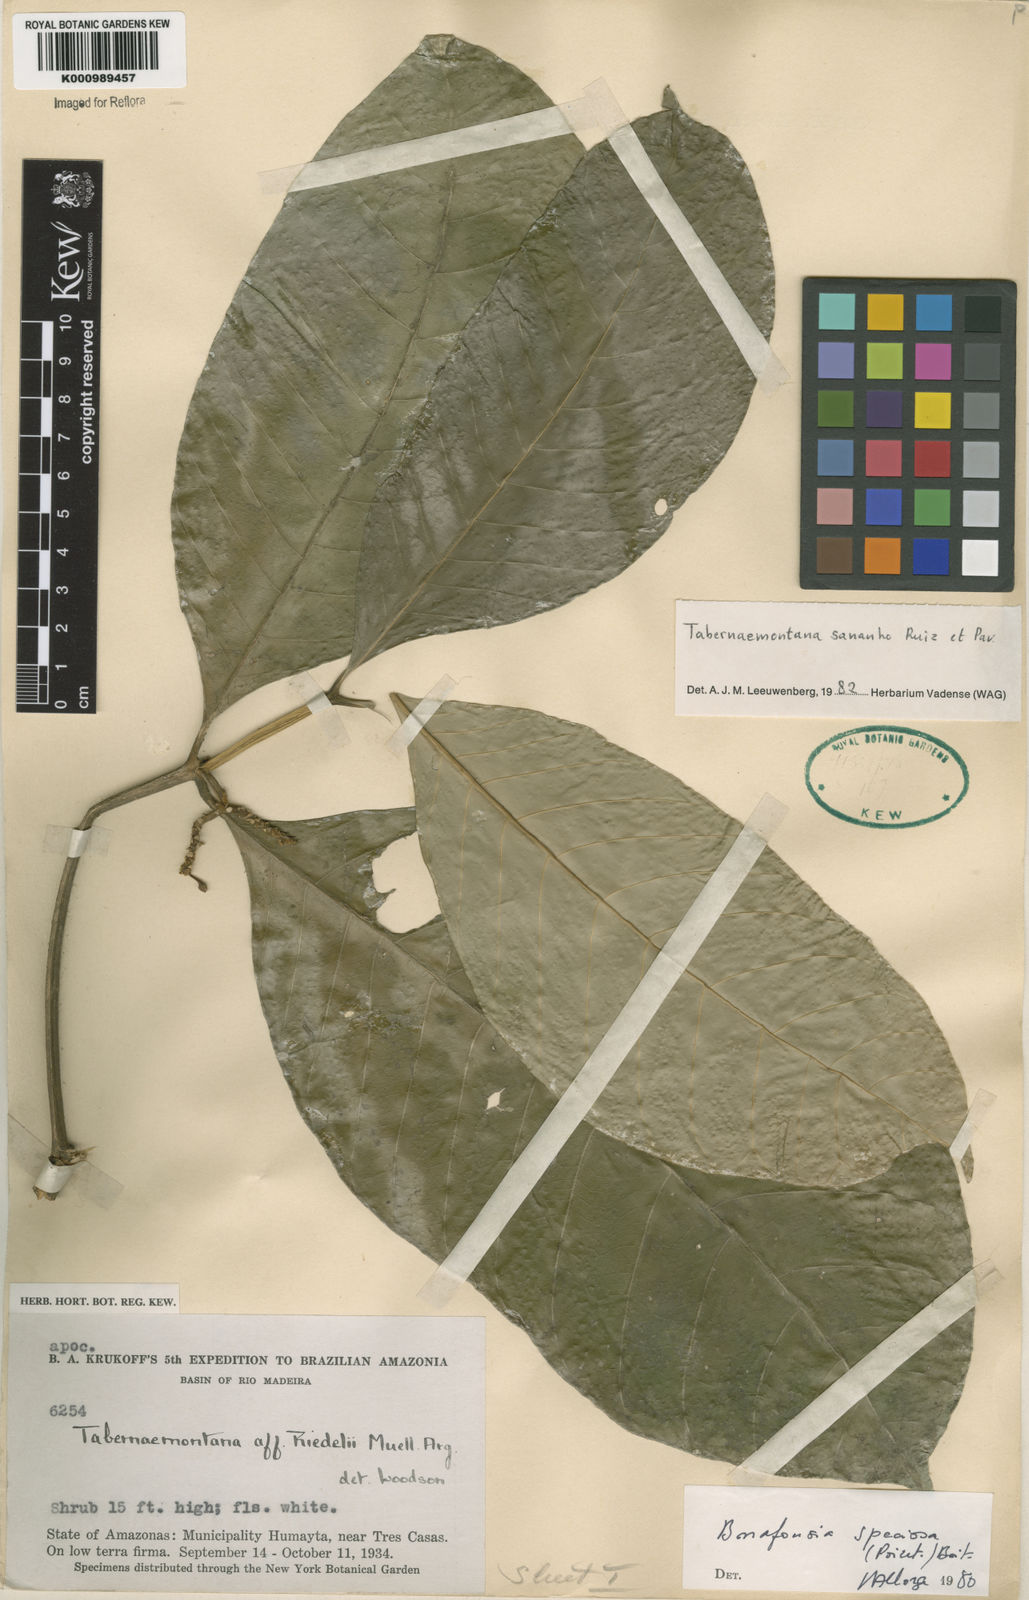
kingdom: Plantae
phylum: Tracheophyta
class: Magnoliopsida
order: Gentianales
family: Apocynaceae
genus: Tabernaemontana
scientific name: Tabernaemontana sananho
